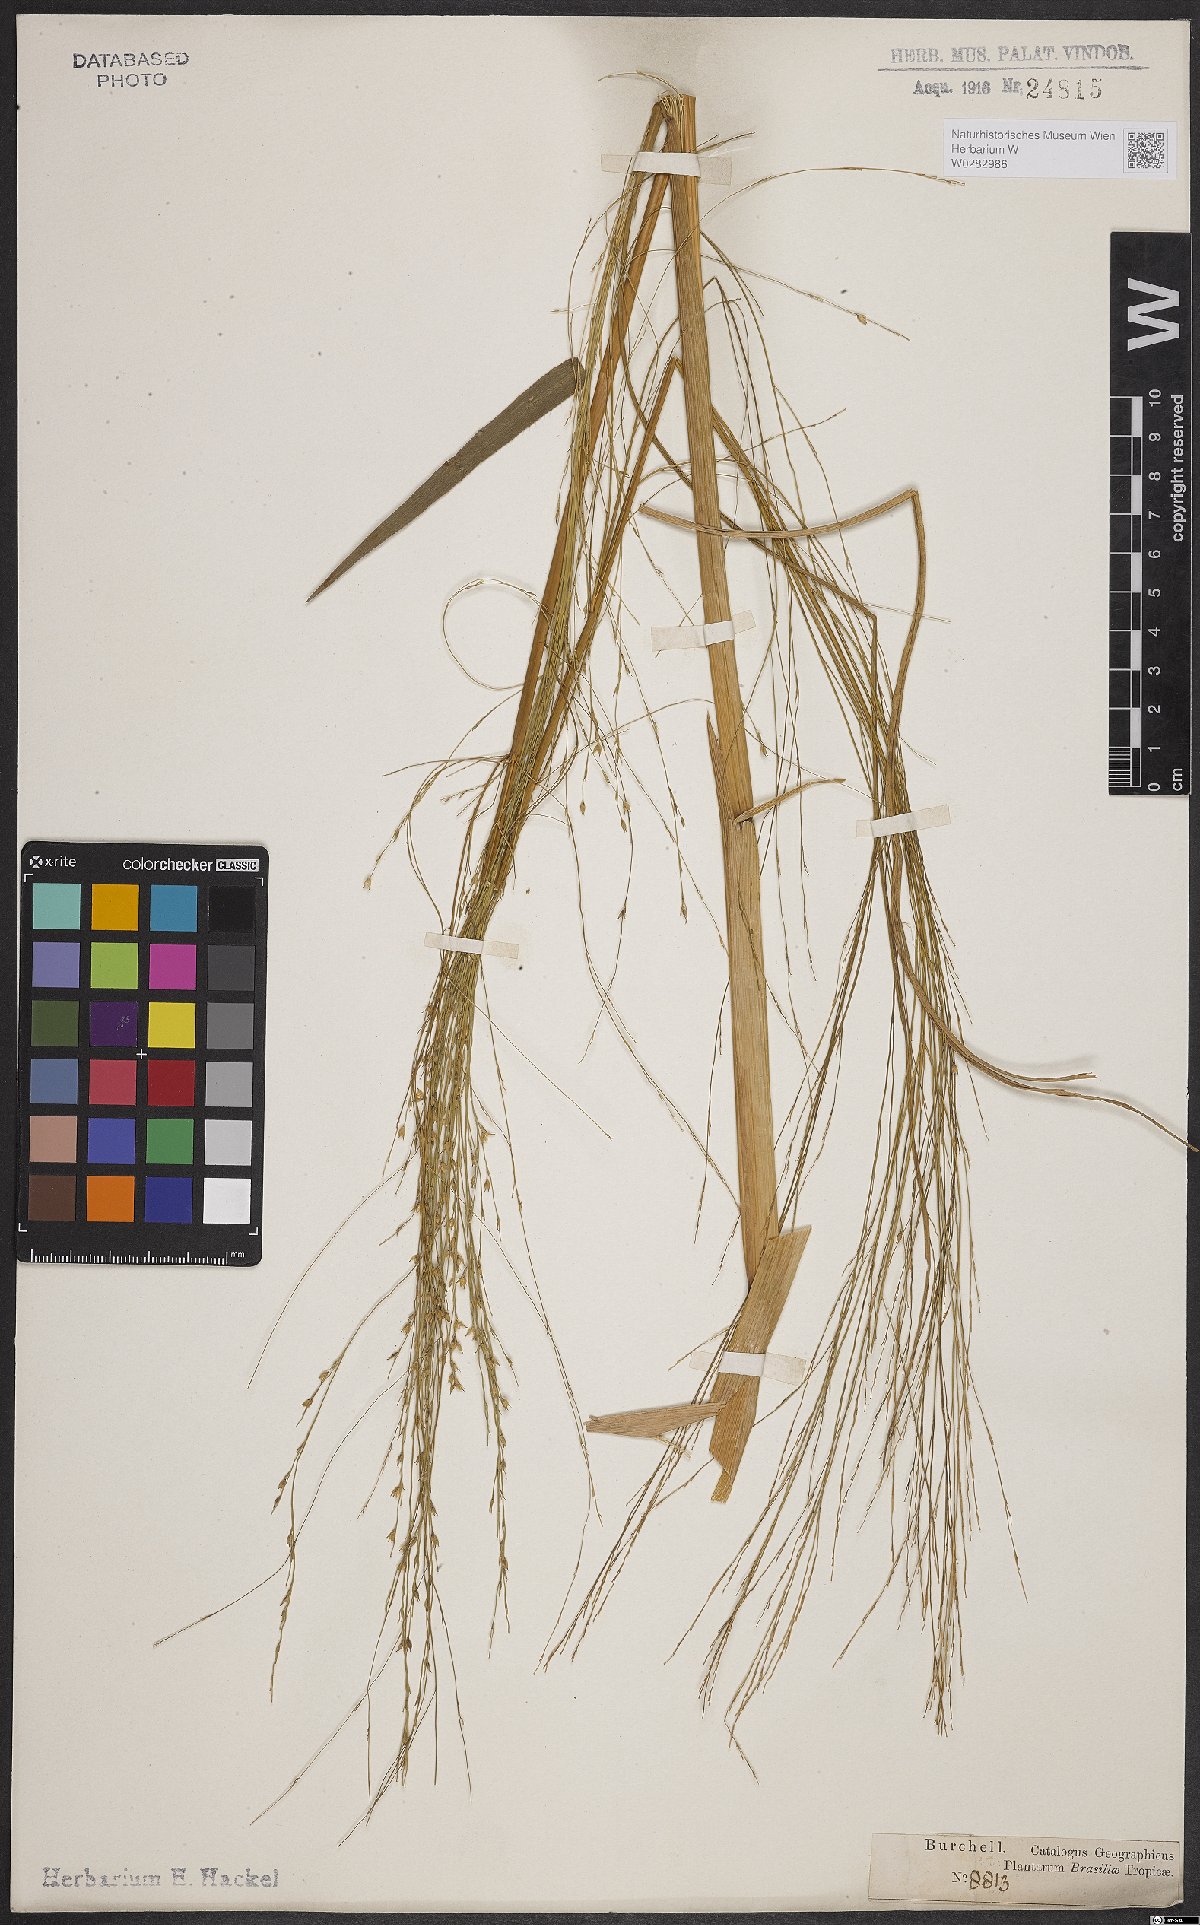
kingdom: Plantae
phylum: Tracheophyta
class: Liliopsida
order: Poales
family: Poaceae
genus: Panicum
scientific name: Panicum peladoense
